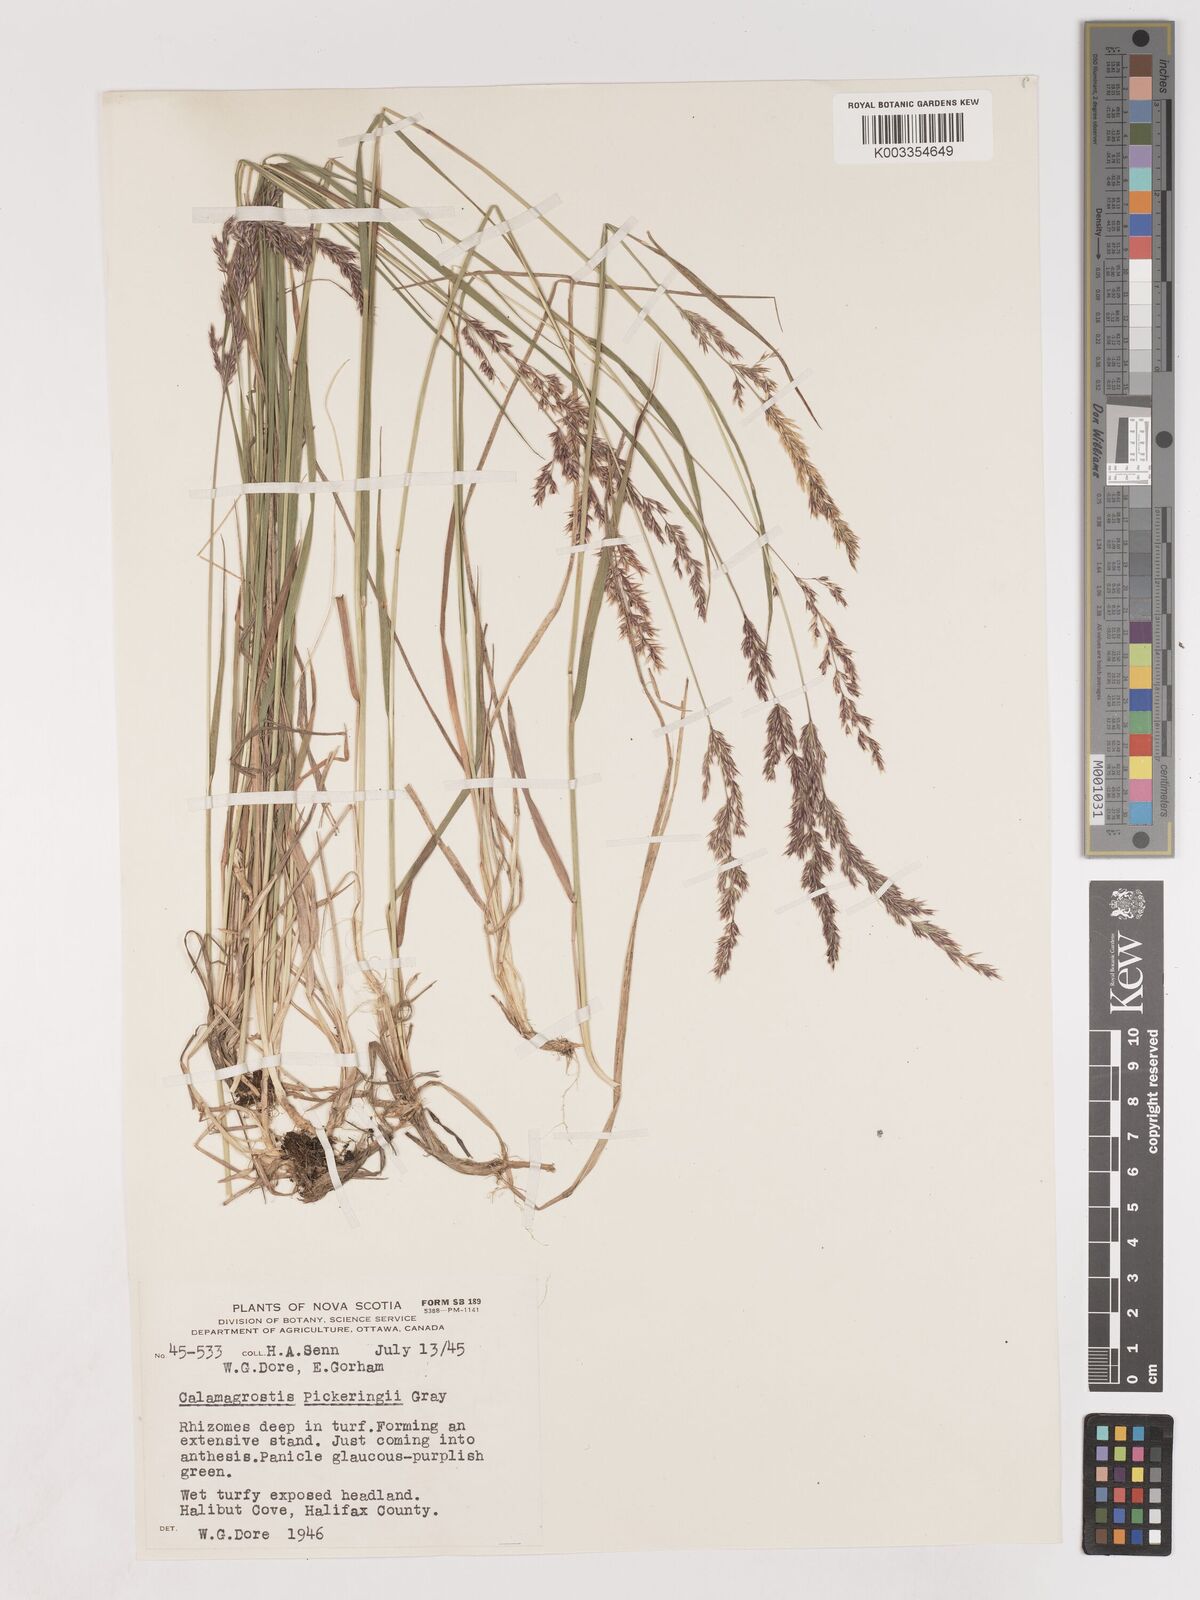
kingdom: Plantae
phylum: Tracheophyta
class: Liliopsida
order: Poales
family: Poaceae
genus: Calamagrostis
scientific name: Calamagrostis pickeringii
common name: Pickering's reed bentgrass
